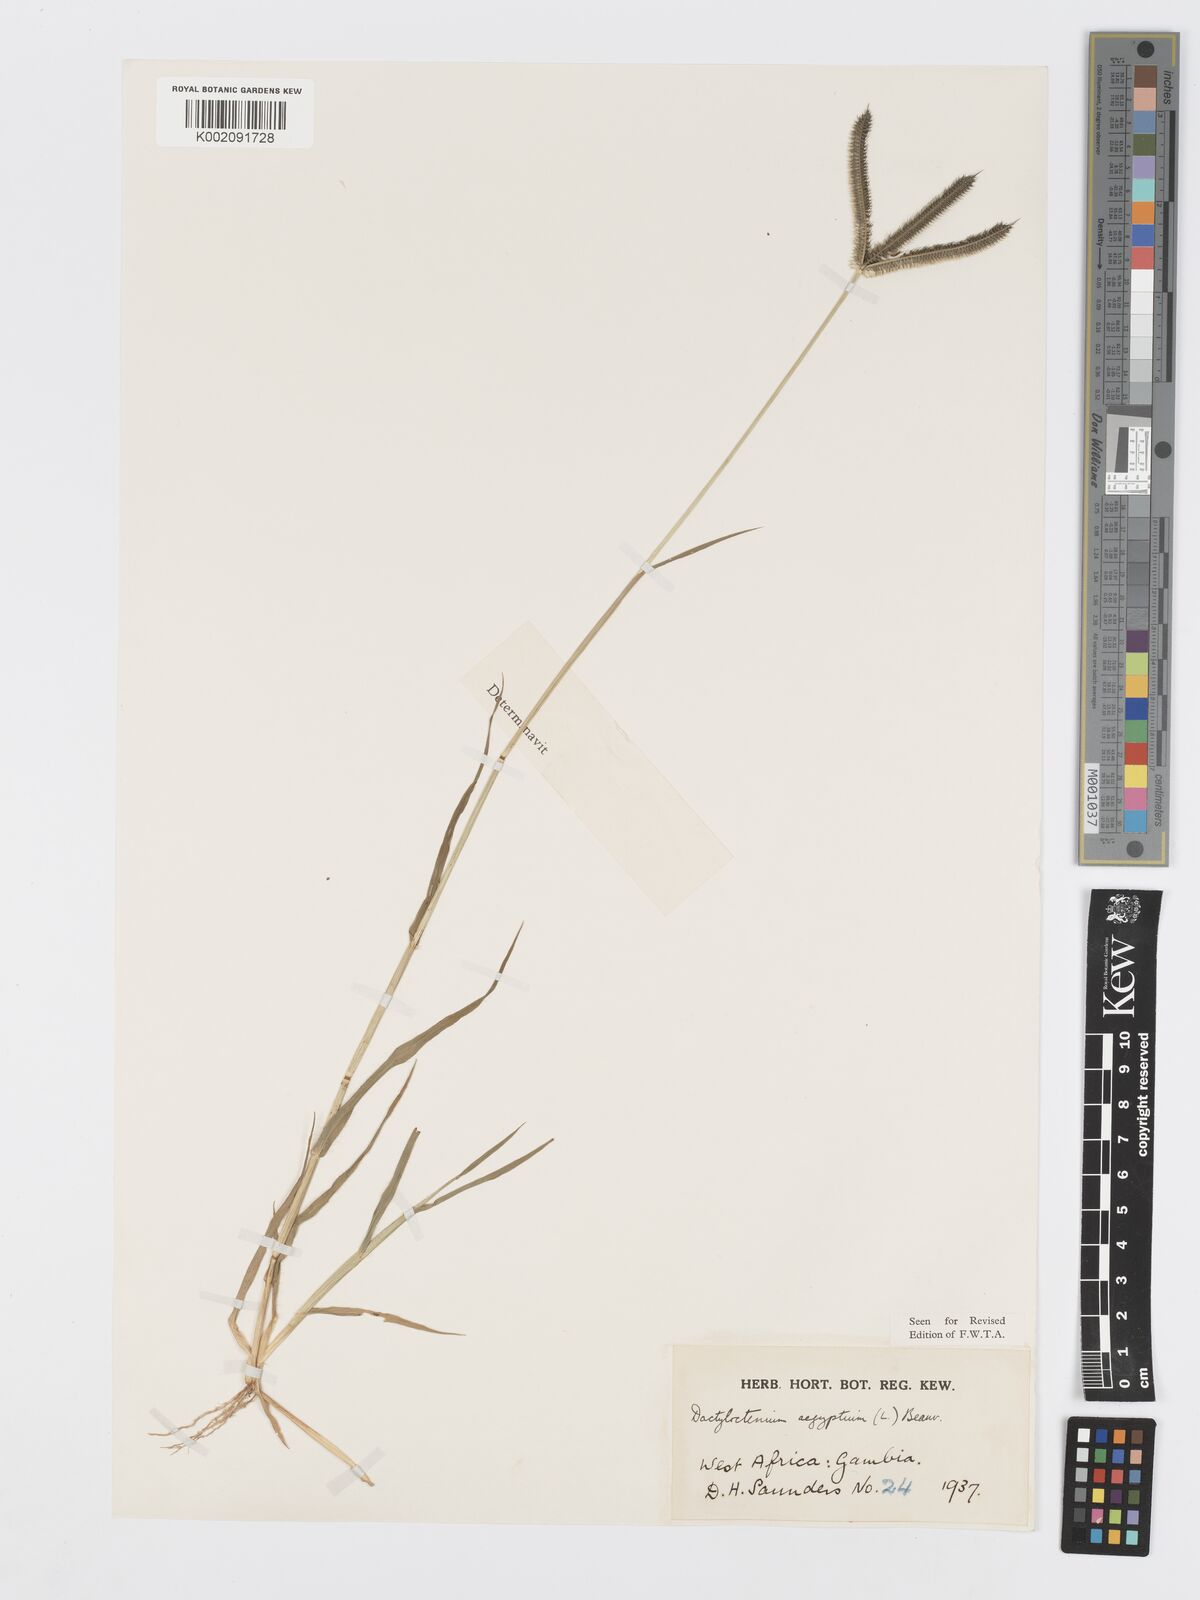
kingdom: Plantae
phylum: Tracheophyta
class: Liliopsida
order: Poales
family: Poaceae
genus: Dactyloctenium
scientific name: Dactyloctenium aegyptium
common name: Egyptian grass
